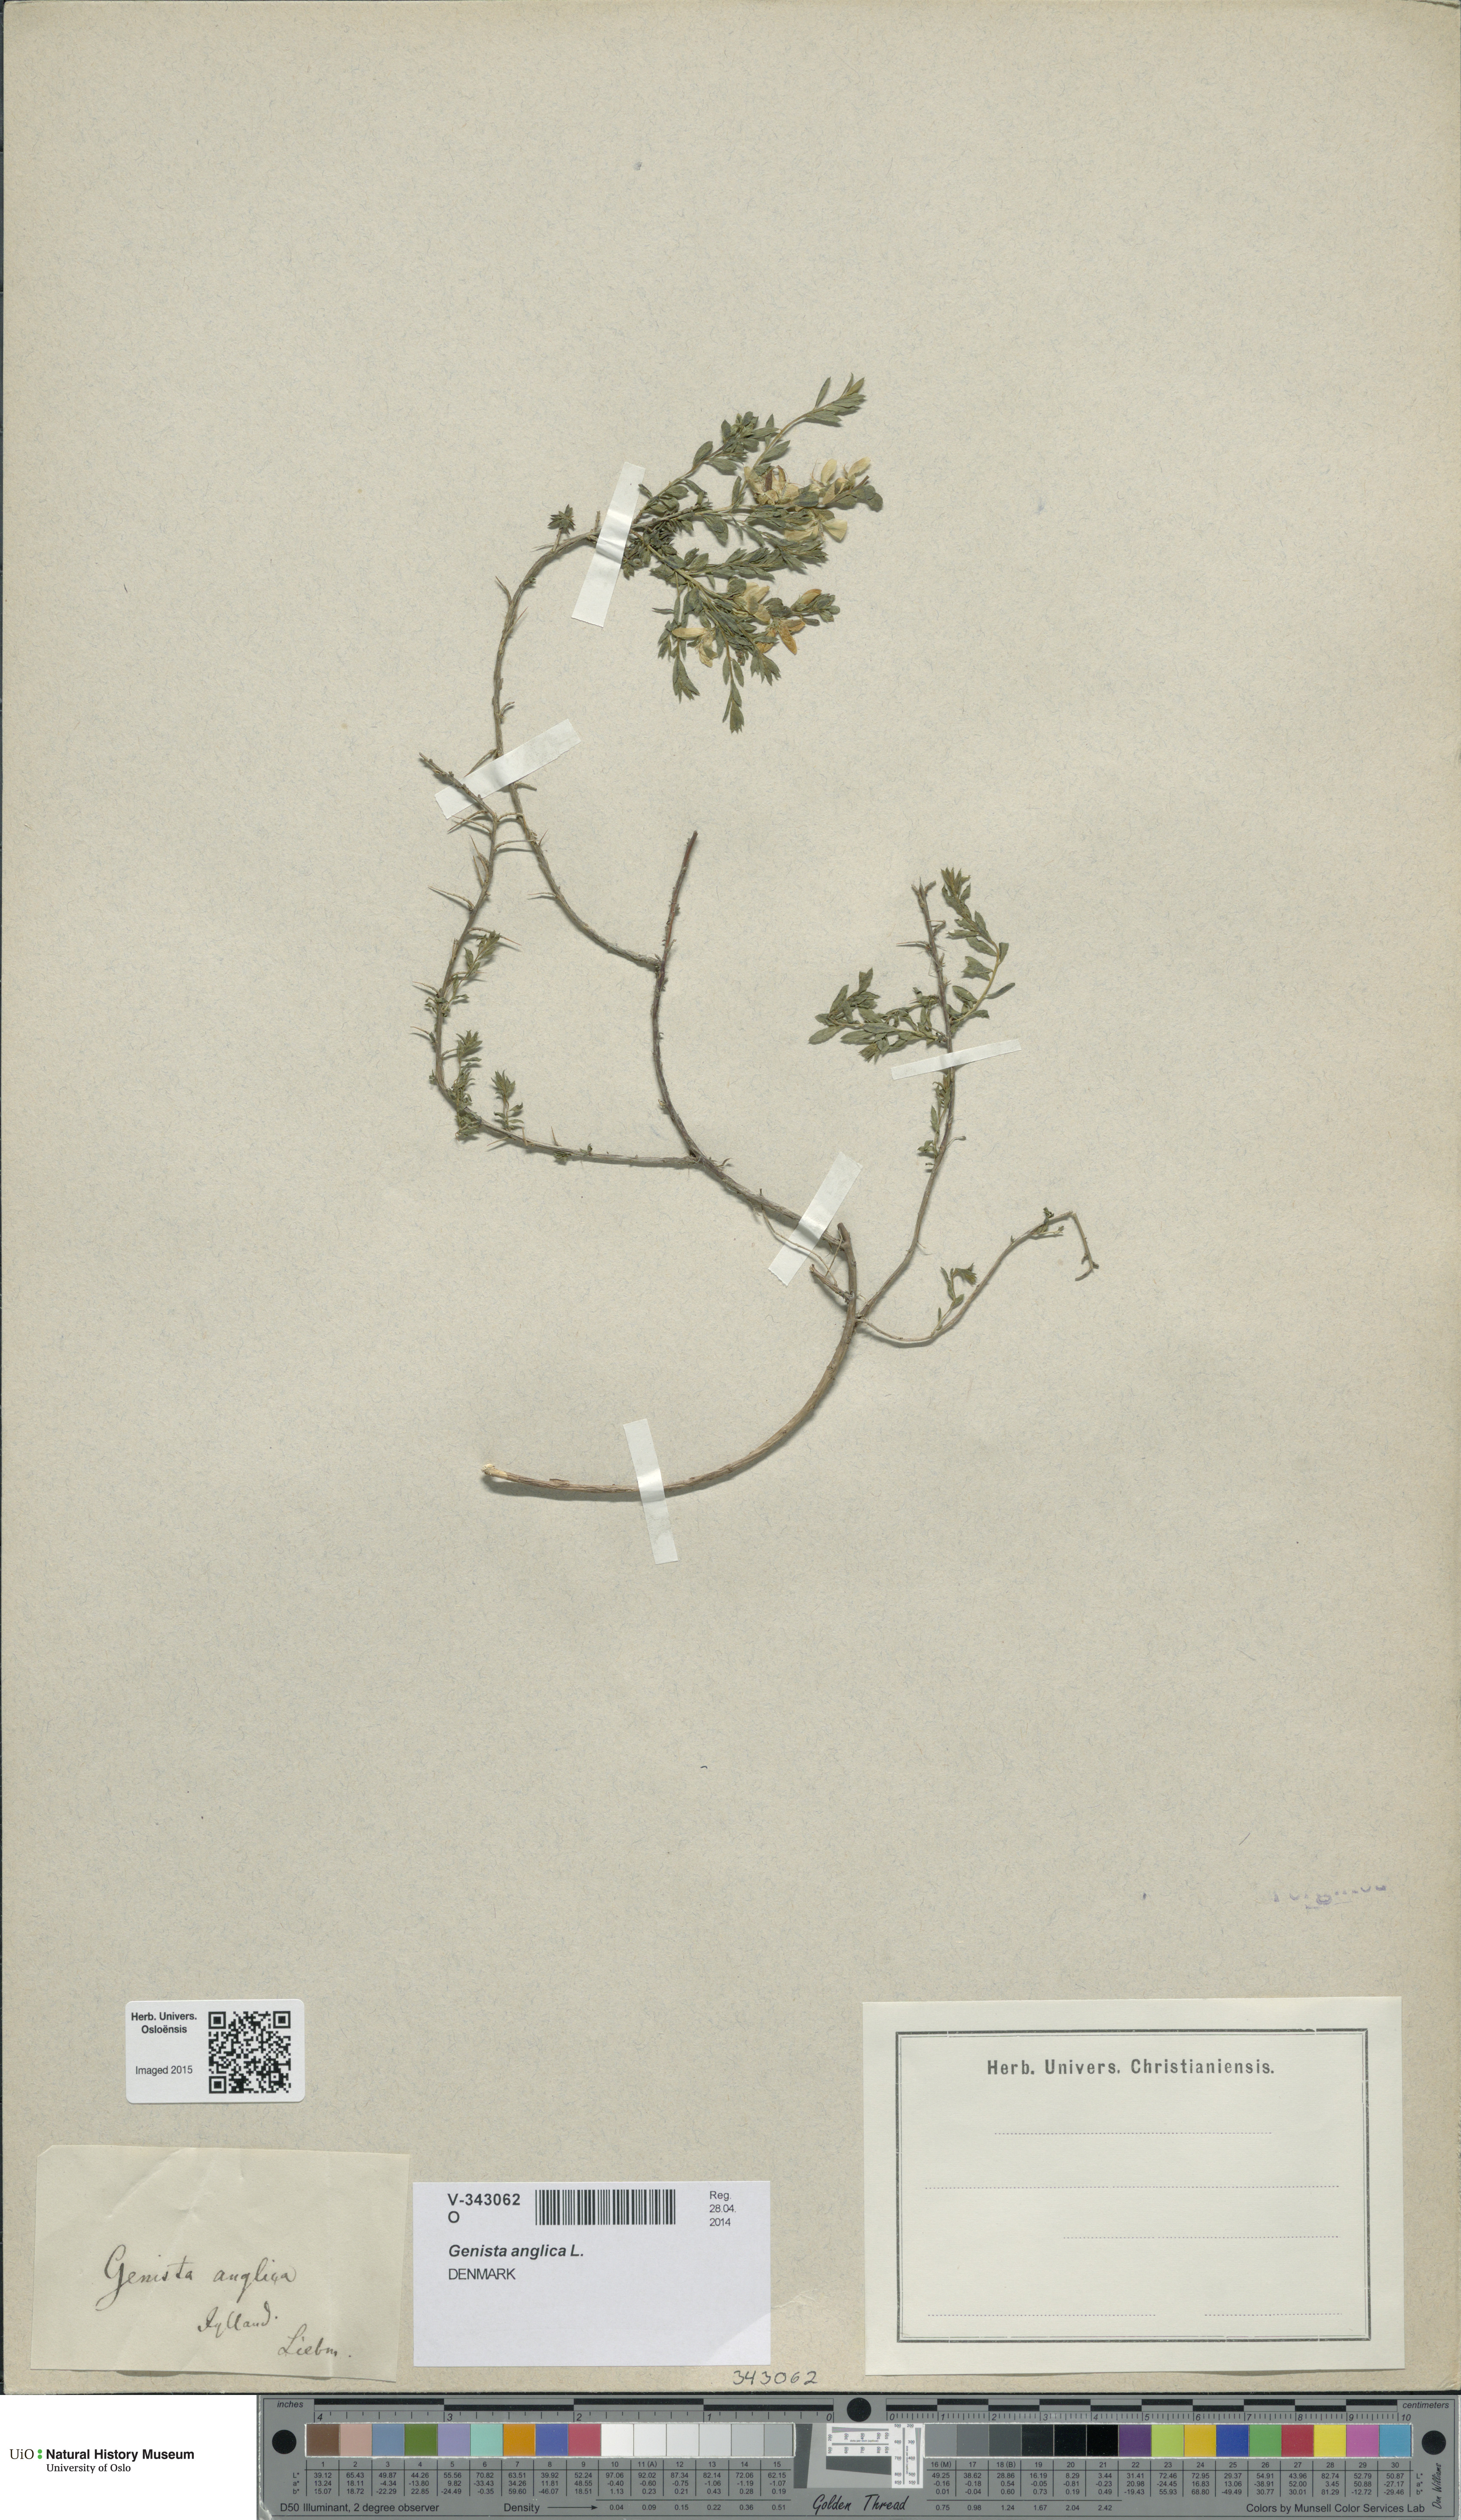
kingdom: Plantae
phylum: Tracheophyta
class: Magnoliopsida
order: Fabales
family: Fabaceae
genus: Genista
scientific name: Genista anglica
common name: Petty whin
